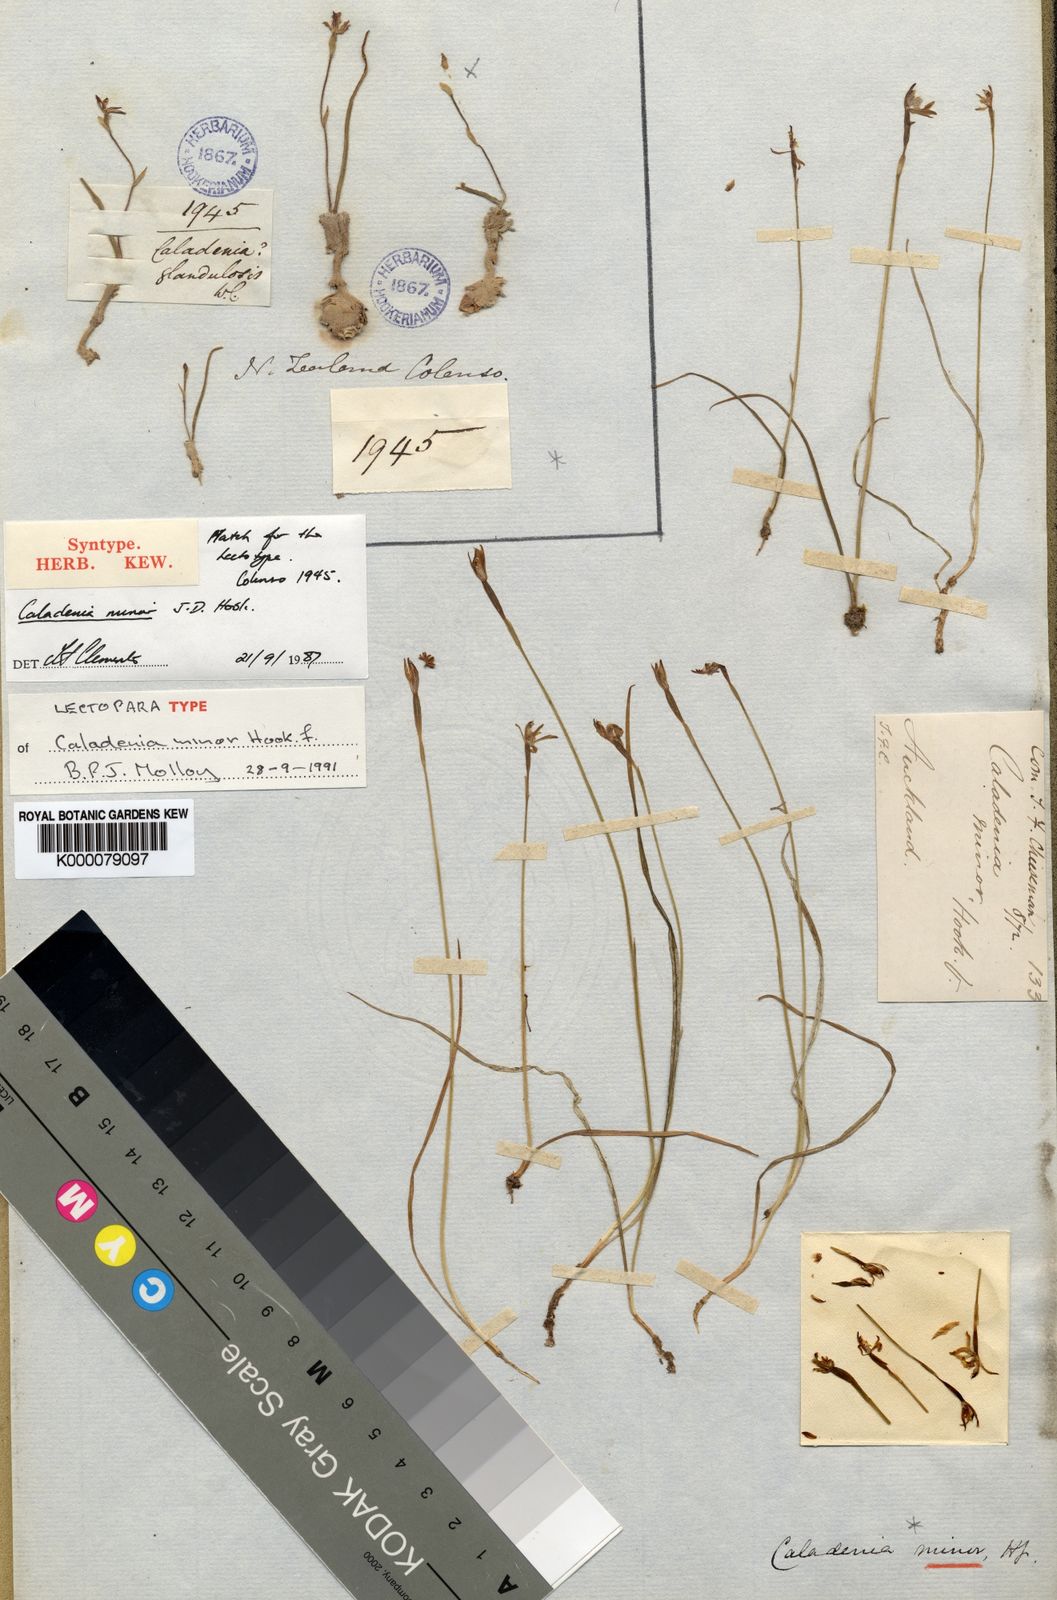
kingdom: Plantae
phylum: Tracheophyta
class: Liliopsida
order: Asparagales
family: Orchidaceae
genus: Caladenia
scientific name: Caladenia minor
